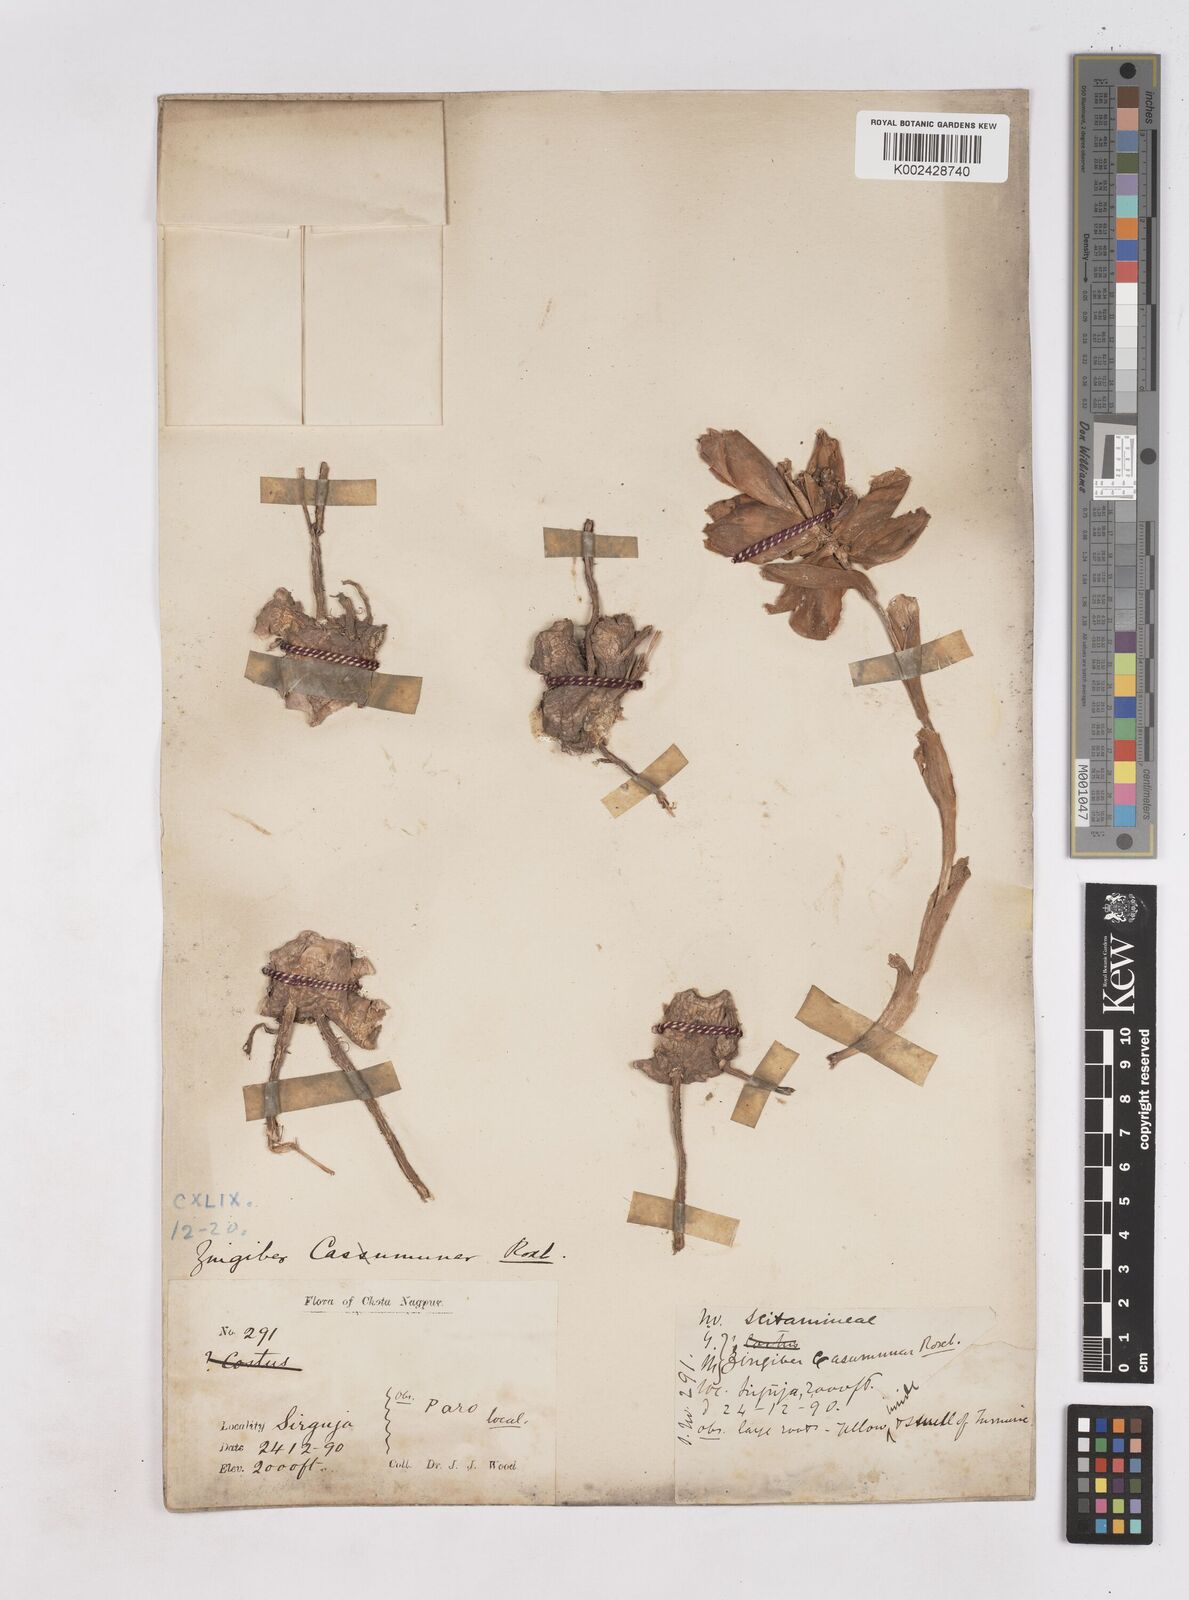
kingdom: Plantae
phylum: Tracheophyta
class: Liliopsida
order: Zingiberales
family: Zingiberaceae
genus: Zingiber
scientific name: Zingiber montanum
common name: Bengal ginger
